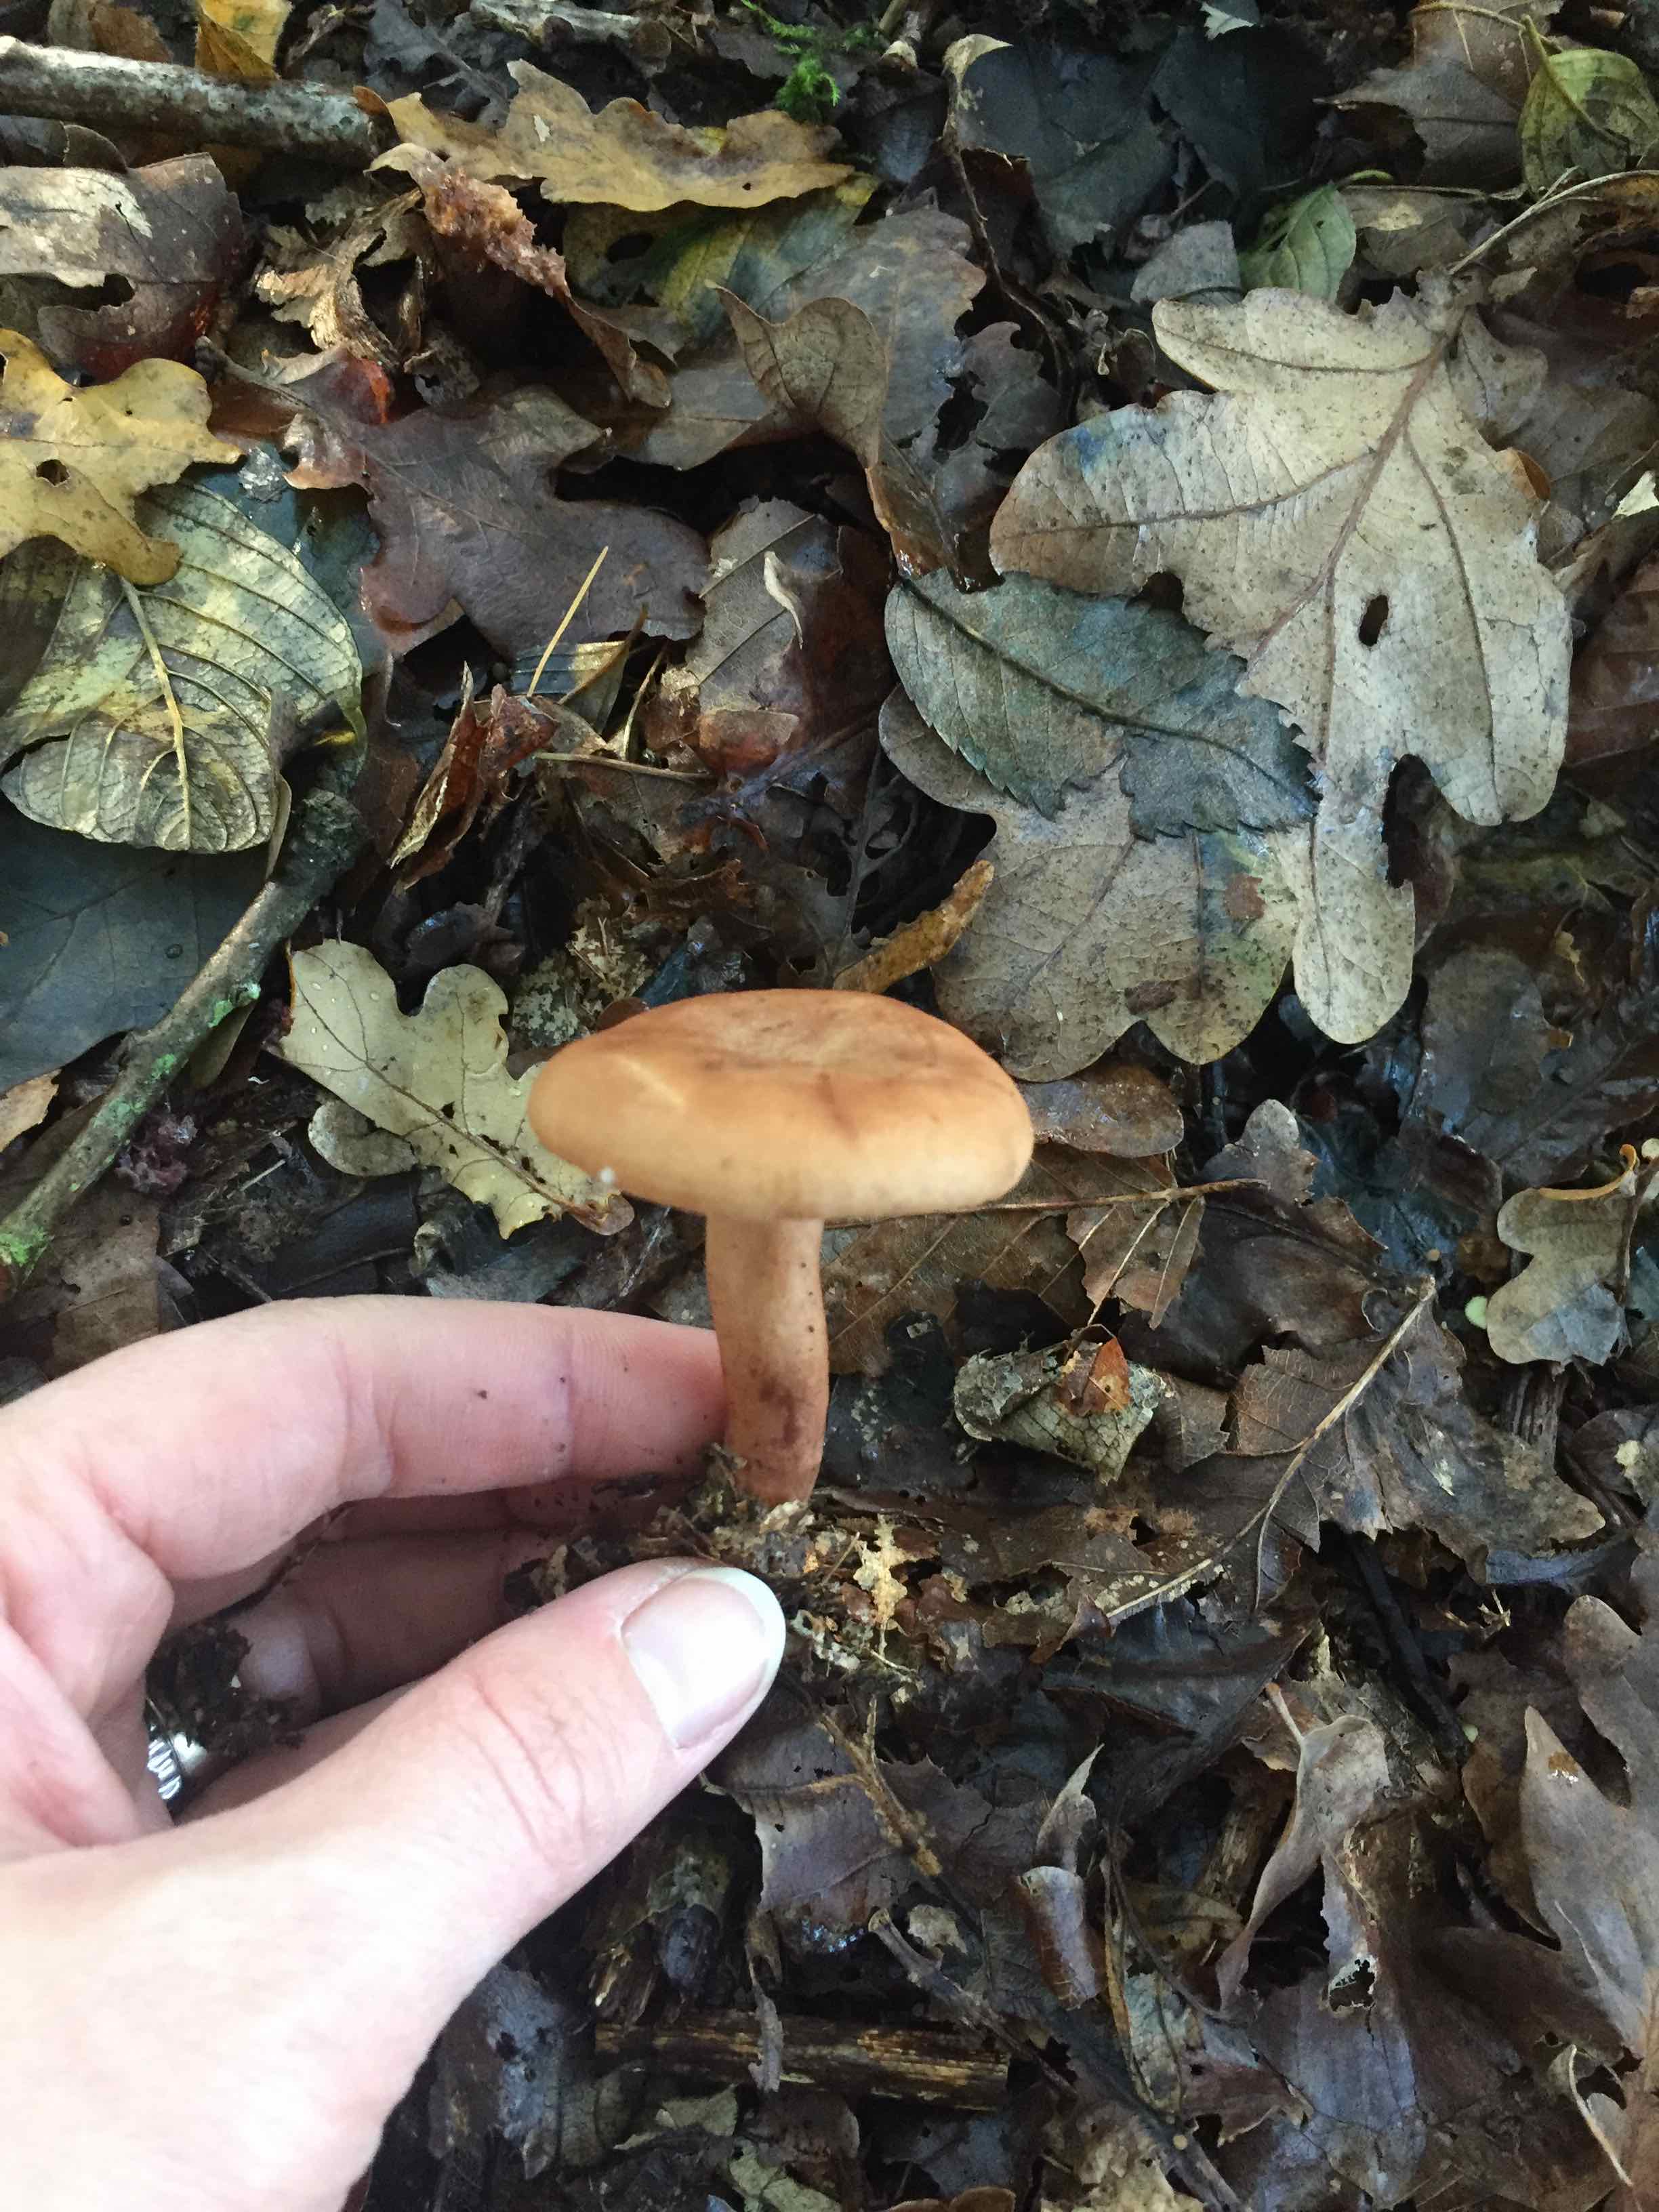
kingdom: Fungi
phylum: Basidiomycota
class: Agaricomycetes
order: Russulales
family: Russulaceae
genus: Lactarius
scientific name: Lactarius
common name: mælkehat
